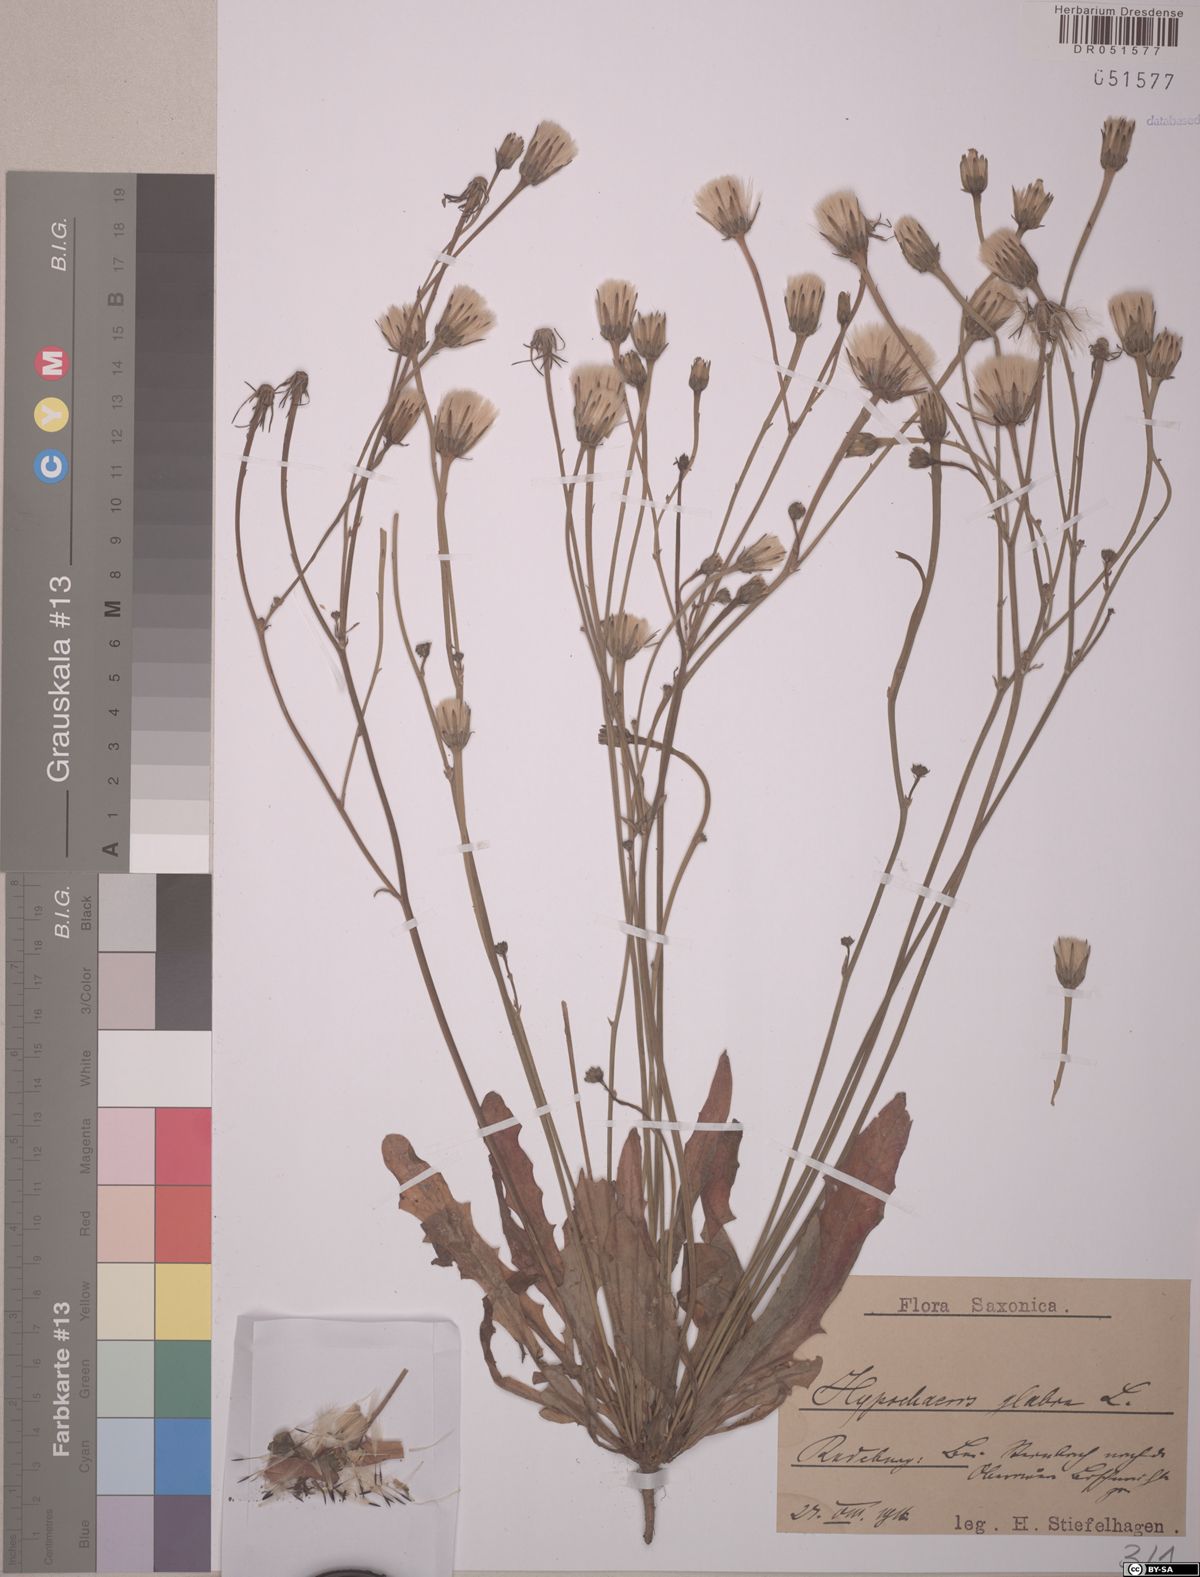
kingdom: Plantae
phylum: Tracheophyta
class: Magnoliopsida
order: Asterales
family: Asteraceae
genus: Hypochaeris
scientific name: Hypochaeris glabra
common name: Smooth catsear
